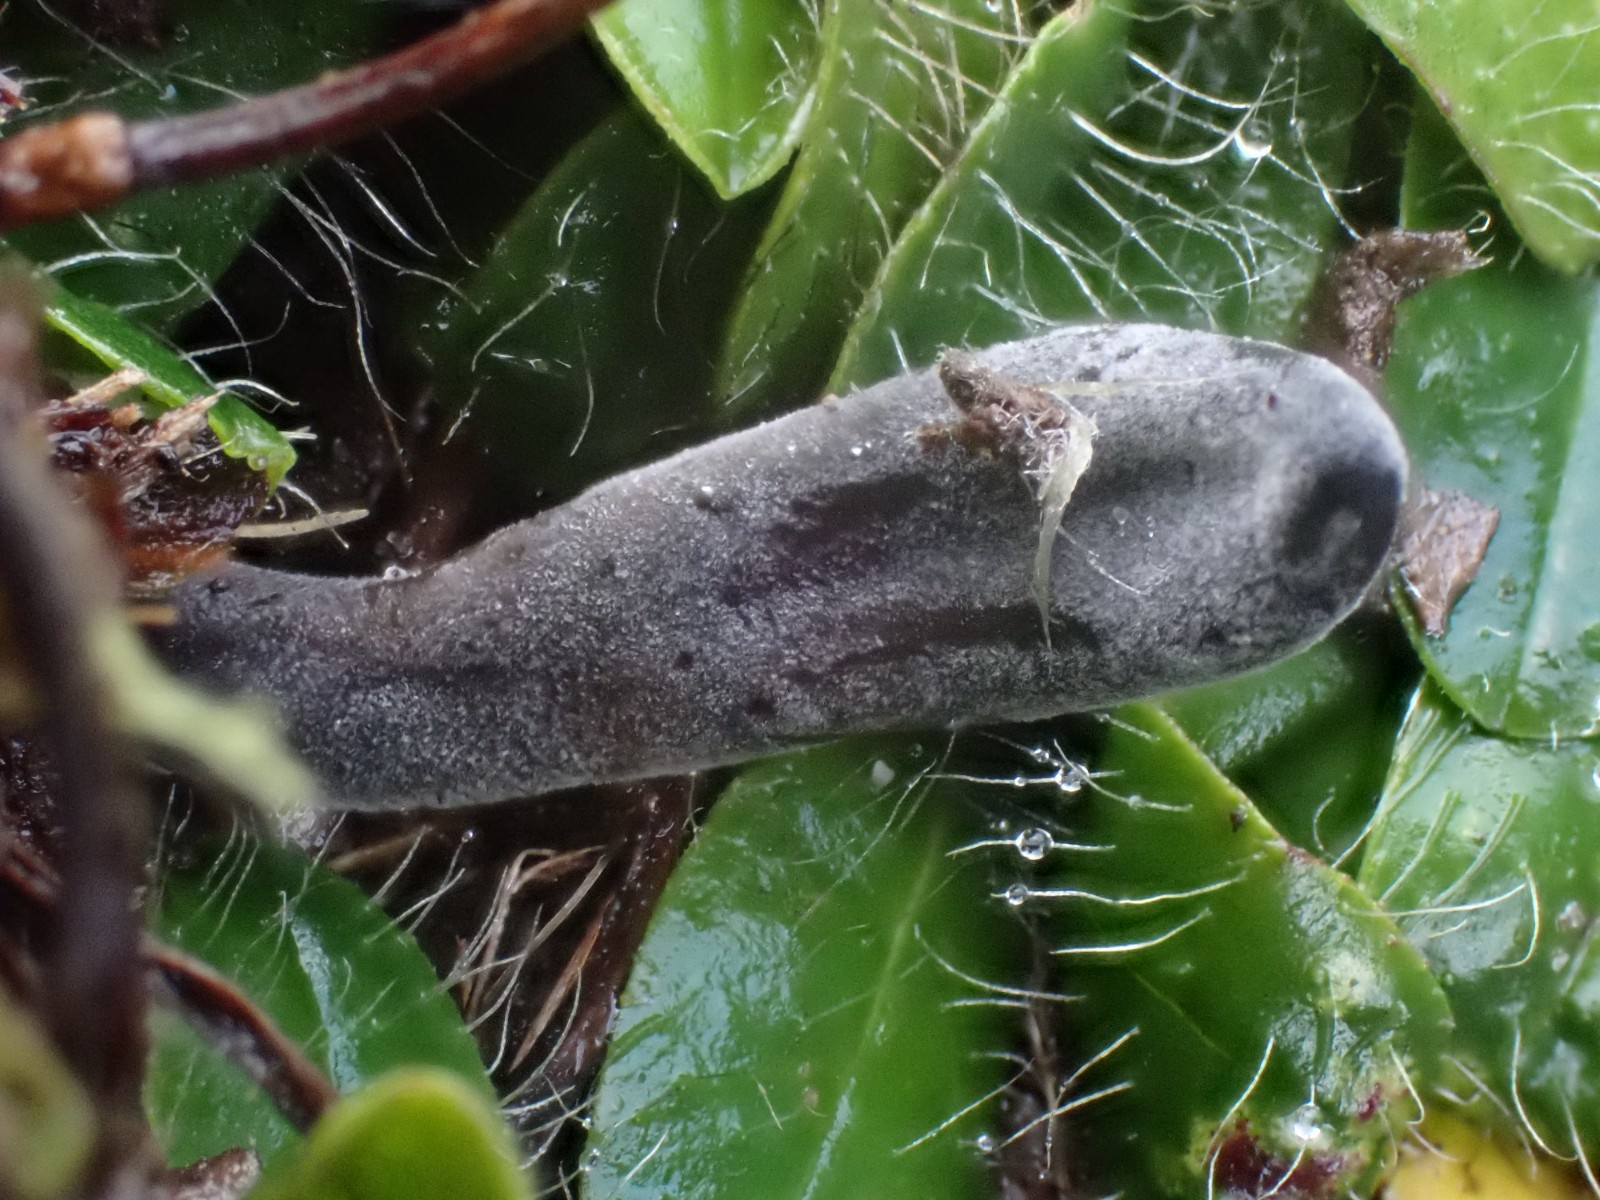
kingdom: Fungi
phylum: Ascomycota
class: Geoglossomycetes
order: Geoglossales
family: Geoglossaceae
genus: Geoglossum
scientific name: Geoglossum
